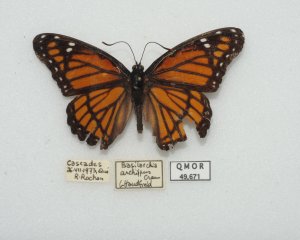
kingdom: Animalia
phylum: Arthropoda
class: Insecta
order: Lepidoptera
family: Nymphalidae
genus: Limenitis
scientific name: Limenitis archippus
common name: Viceroy
